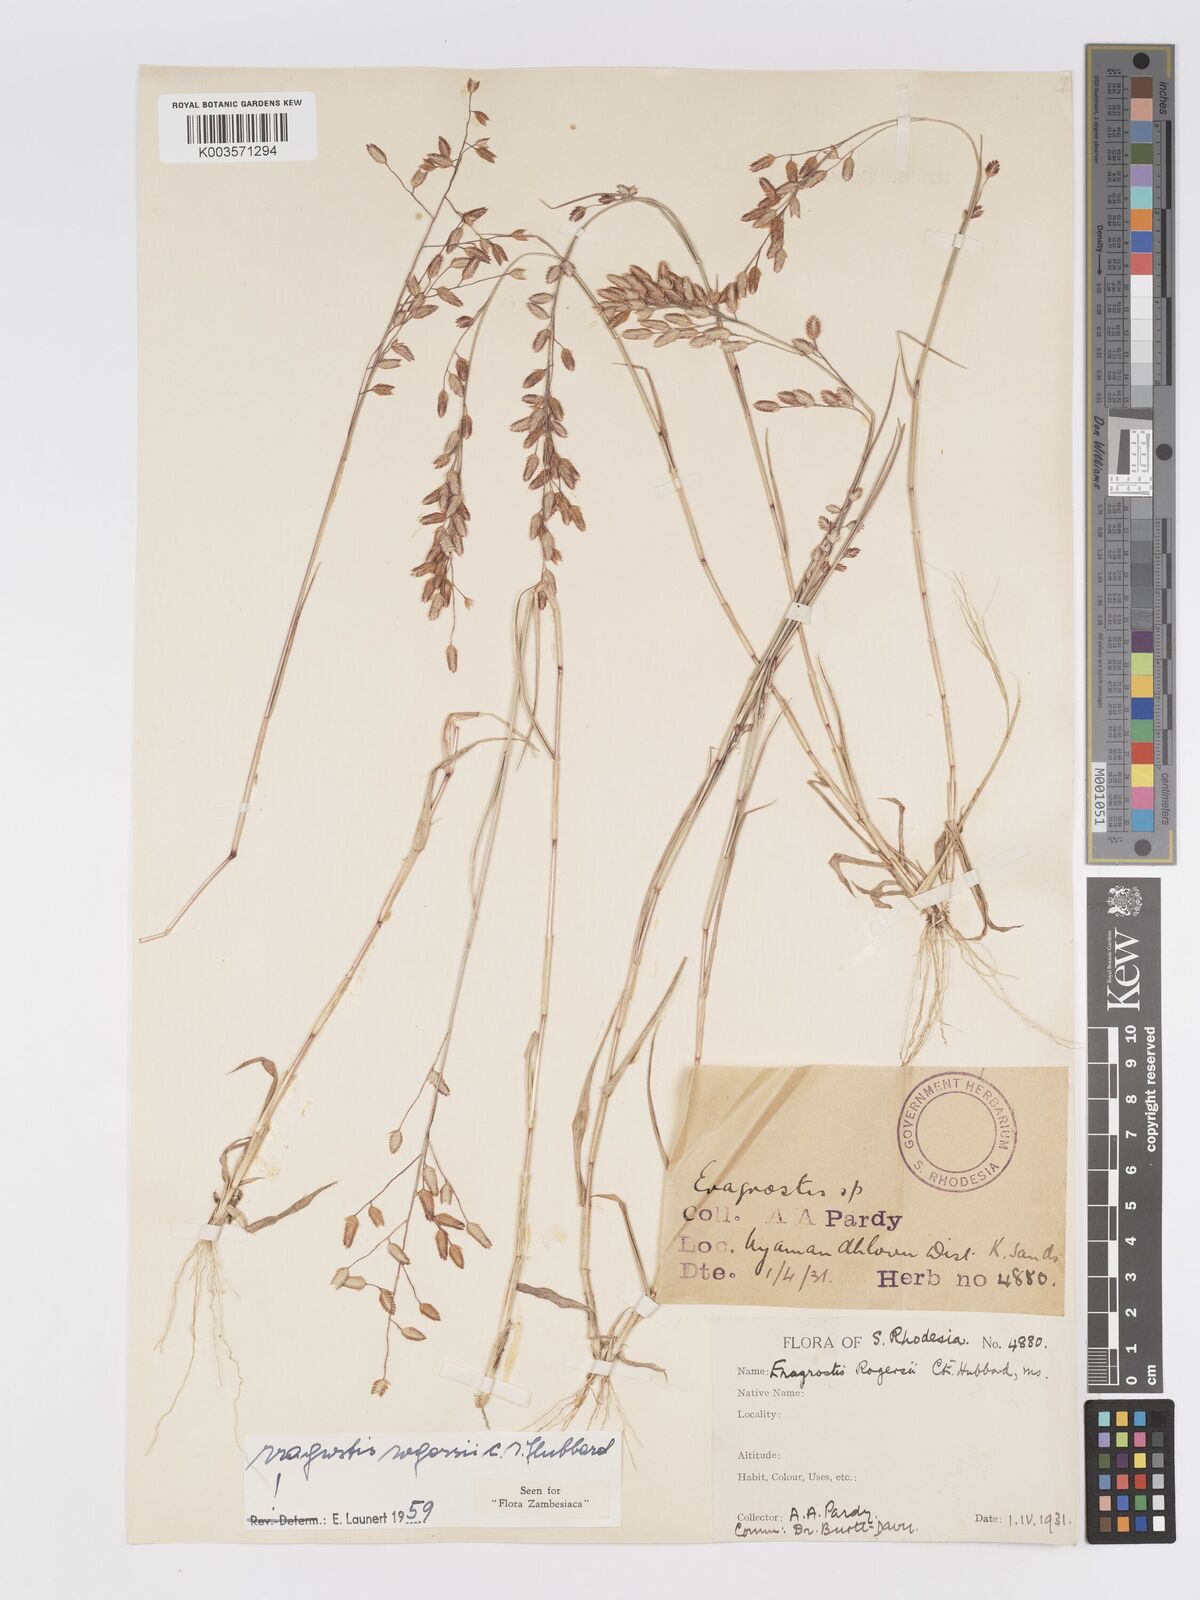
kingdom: Plantae
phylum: Tracheophyta
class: Liliopsida
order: Poales
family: Poaceae
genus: Eragrostis
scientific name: Eragrostis rogersii
